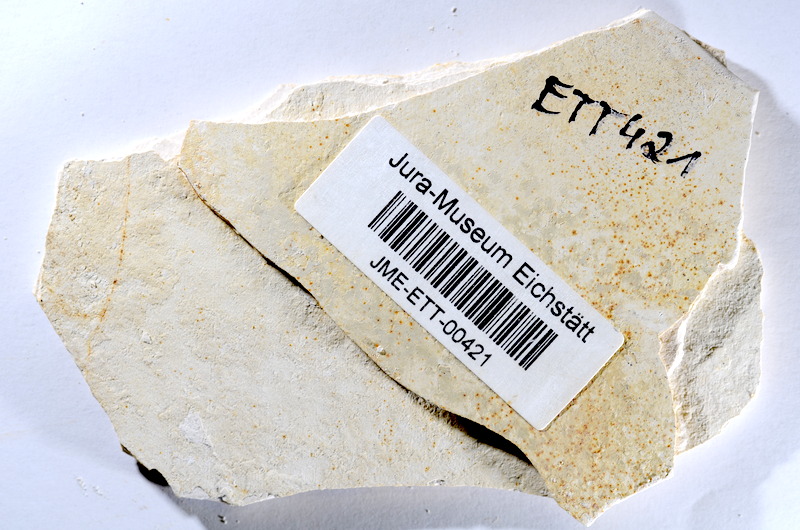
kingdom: Animalia
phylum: Chordata
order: Salmoniformes
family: Orthogonikleithridae
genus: Orthogonikleithrus
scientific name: Orthogonikleithrus hoelli
